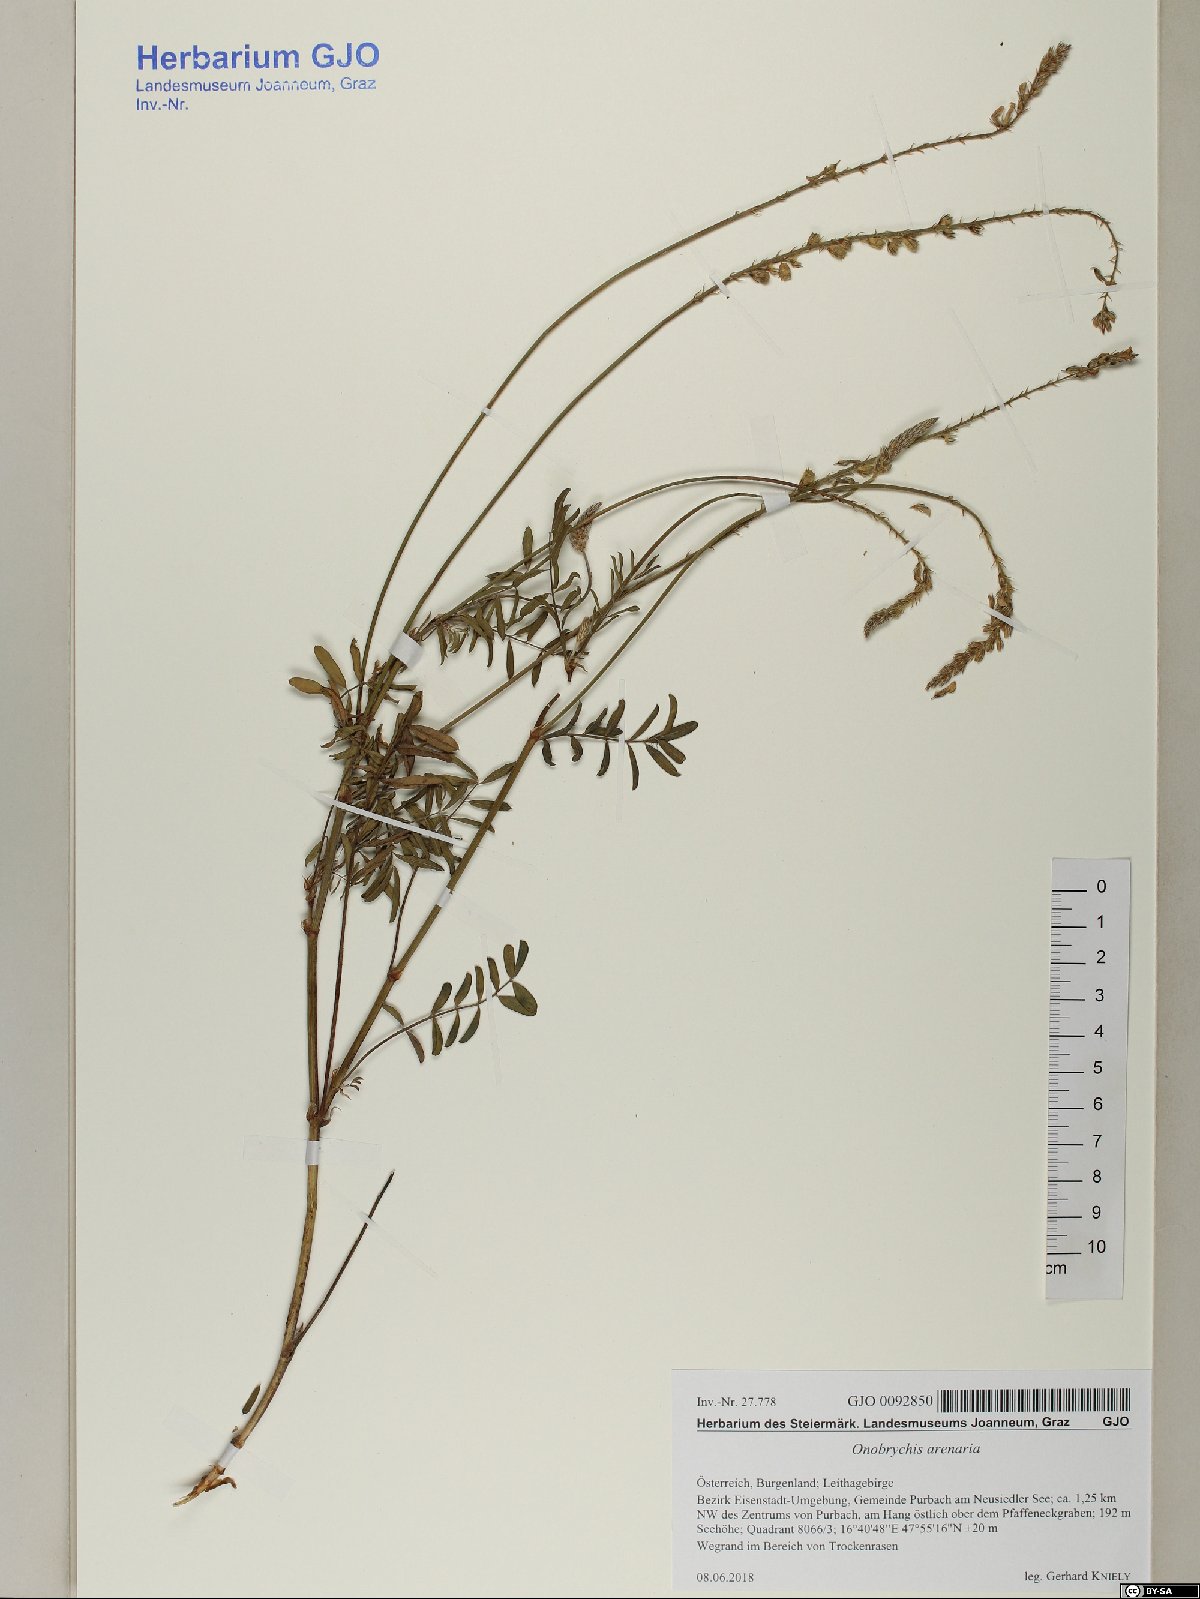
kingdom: Plantae
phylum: Tracheophyta
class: Magnoliopsida
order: Fabales
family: Fabaceae
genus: Onobrychis
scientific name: Onobrychis arenaria
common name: Sand esparcet
